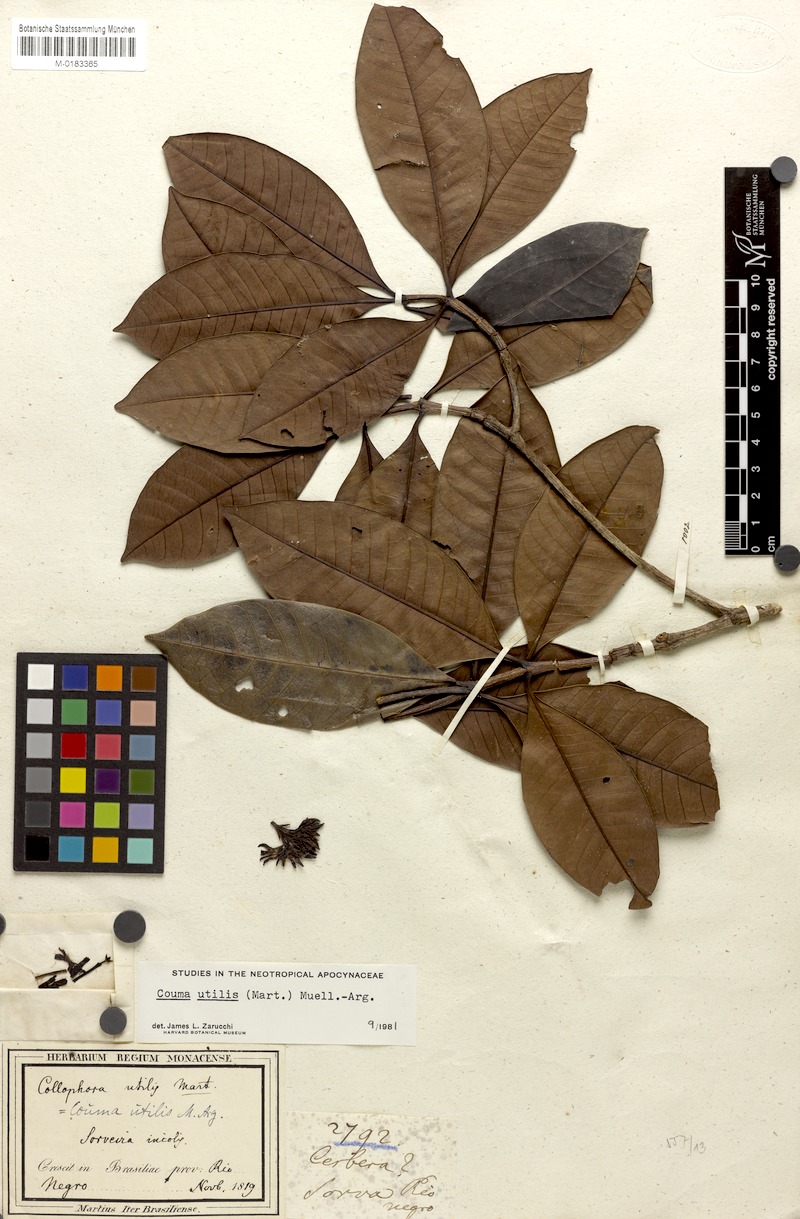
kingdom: Plantae
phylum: Tracheophyta
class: Magnoliopsida
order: Gentianales
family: Apocynaceae
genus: Couma
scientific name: Couma utilis
